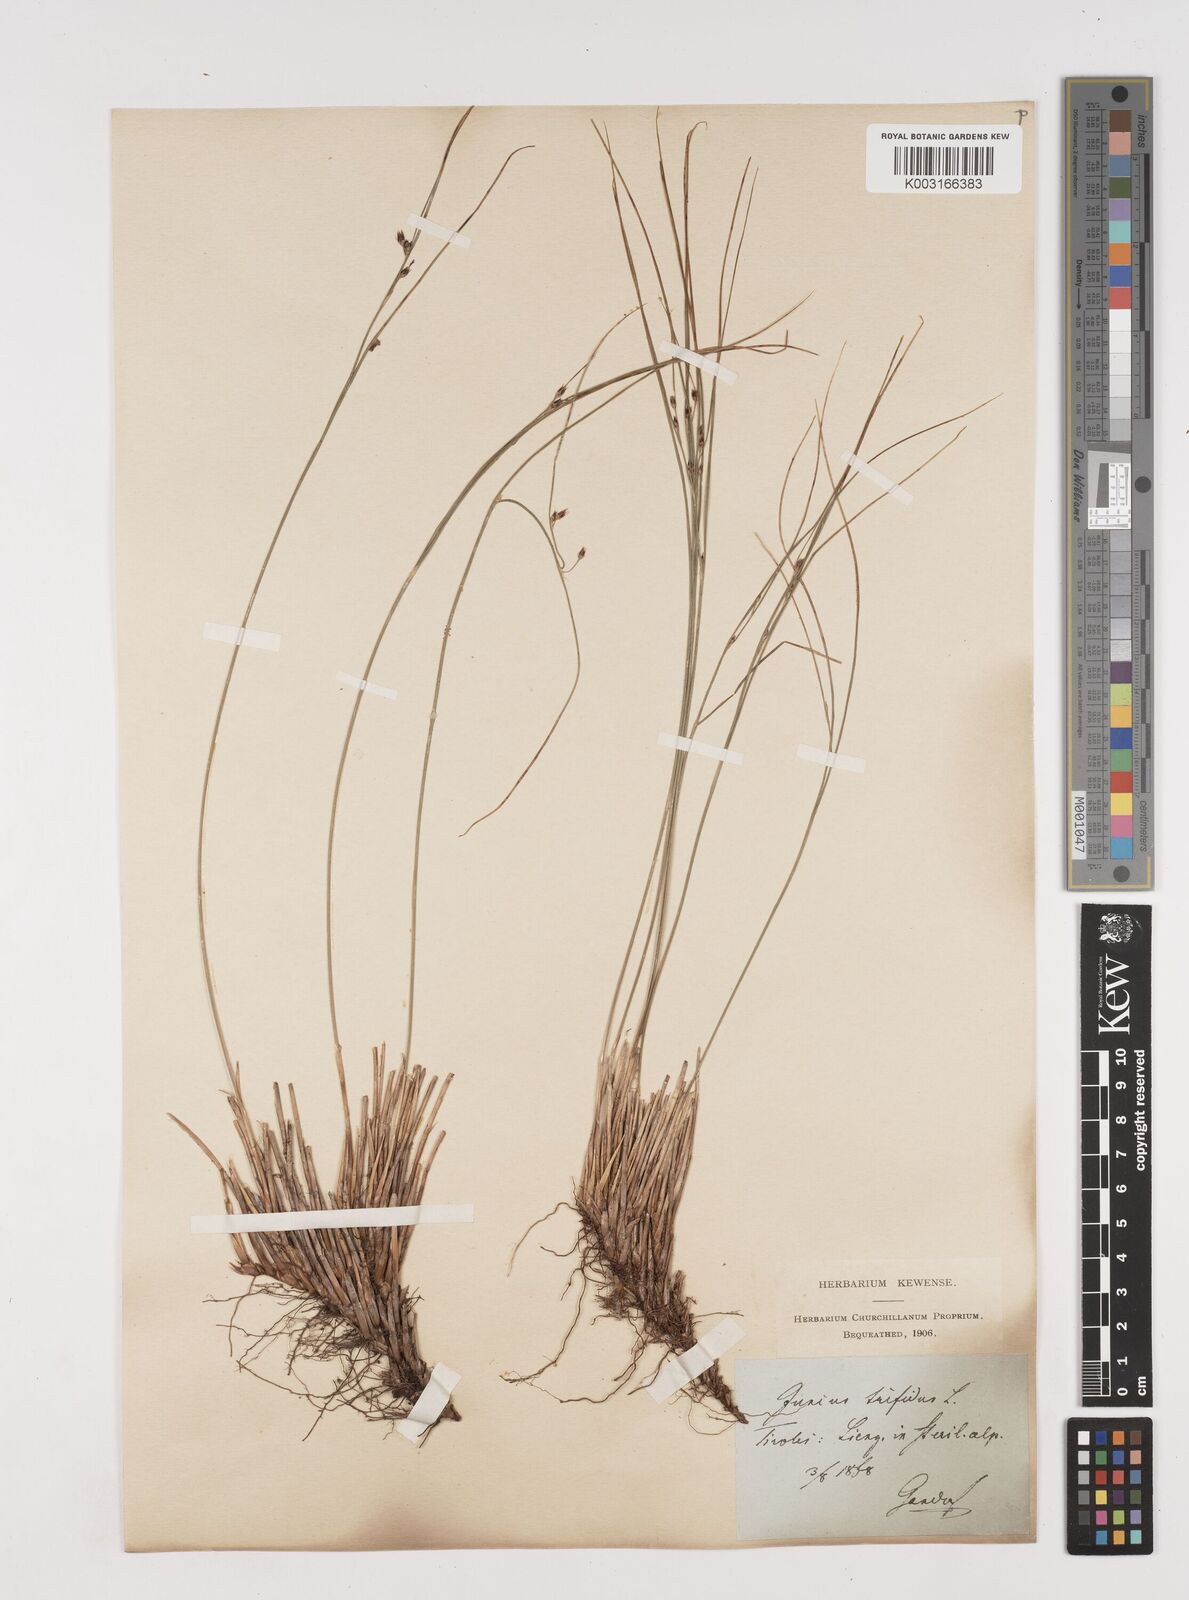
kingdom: Plantae
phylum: Tracheophyta
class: Liliopsida
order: Poales
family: Juncaceae
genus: Oreojuncus
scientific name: Oreojuncus trifidus
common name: Highland rush
